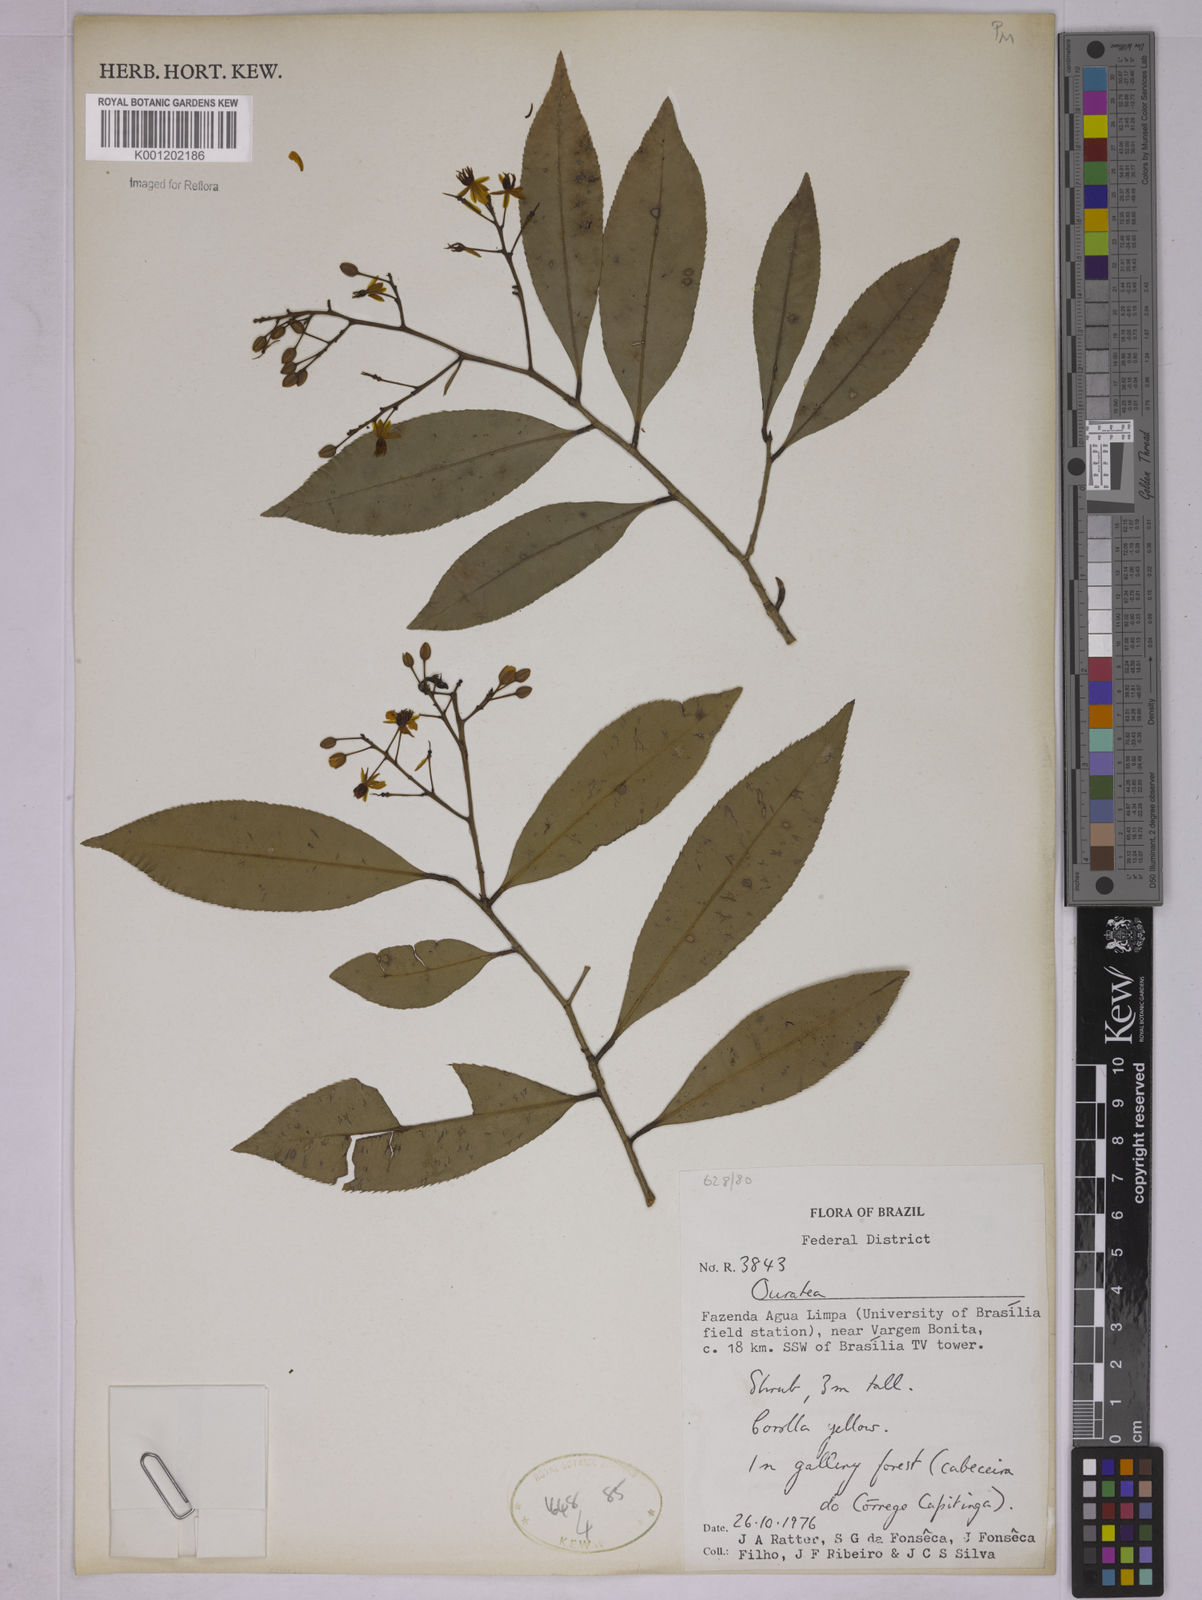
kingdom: Plantae
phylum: Tracheophyta
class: Magnoliopsida
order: Malpighiales
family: Ochnaceae
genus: Ouratea
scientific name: Ouratea
